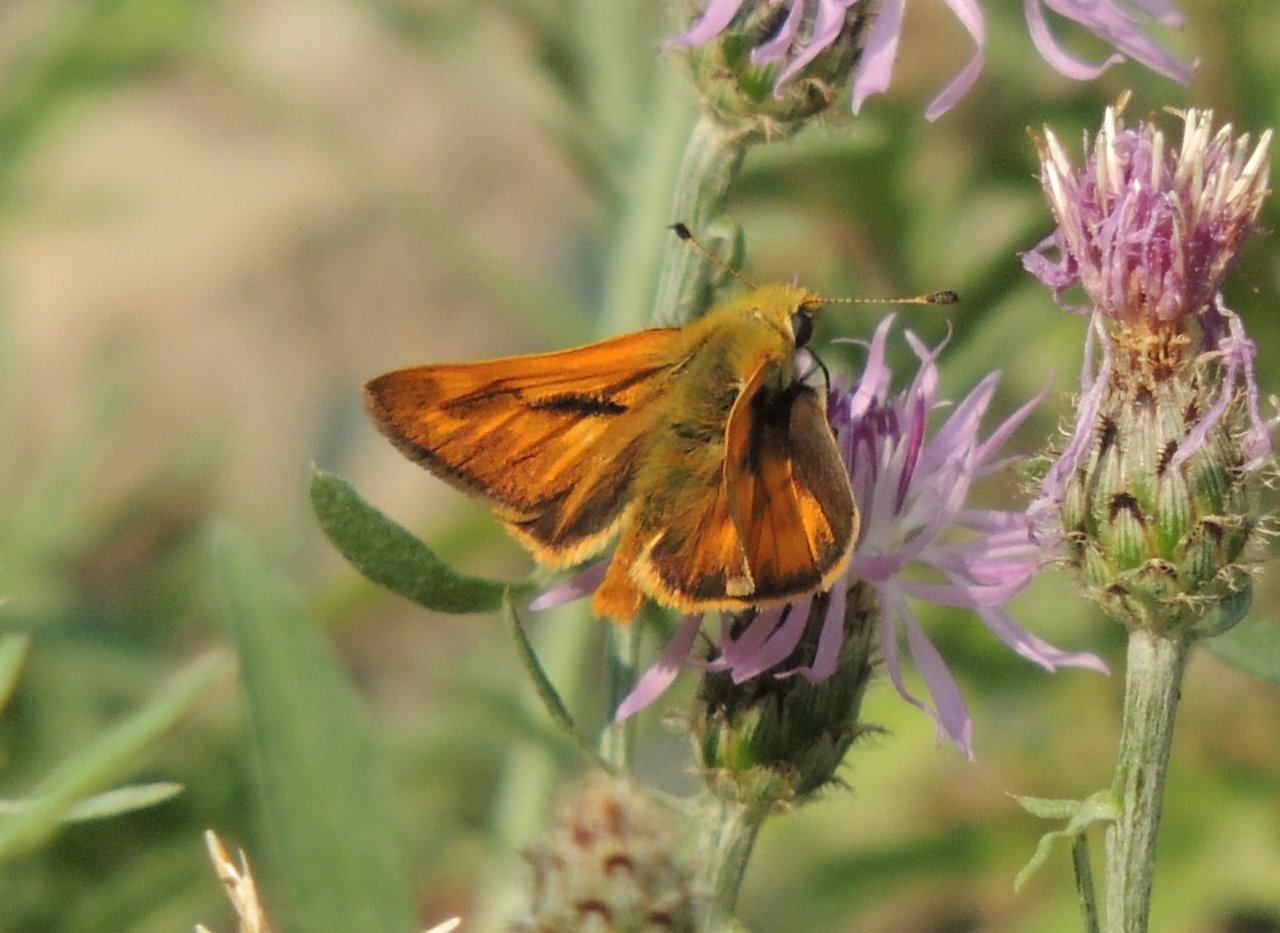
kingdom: Animalia
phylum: Arthropoda
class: Insecta
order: Lepidoptera
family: Hesperiidae
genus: Ochlodes
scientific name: Ochlodes sylvanoides
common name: Woodland Skipper
